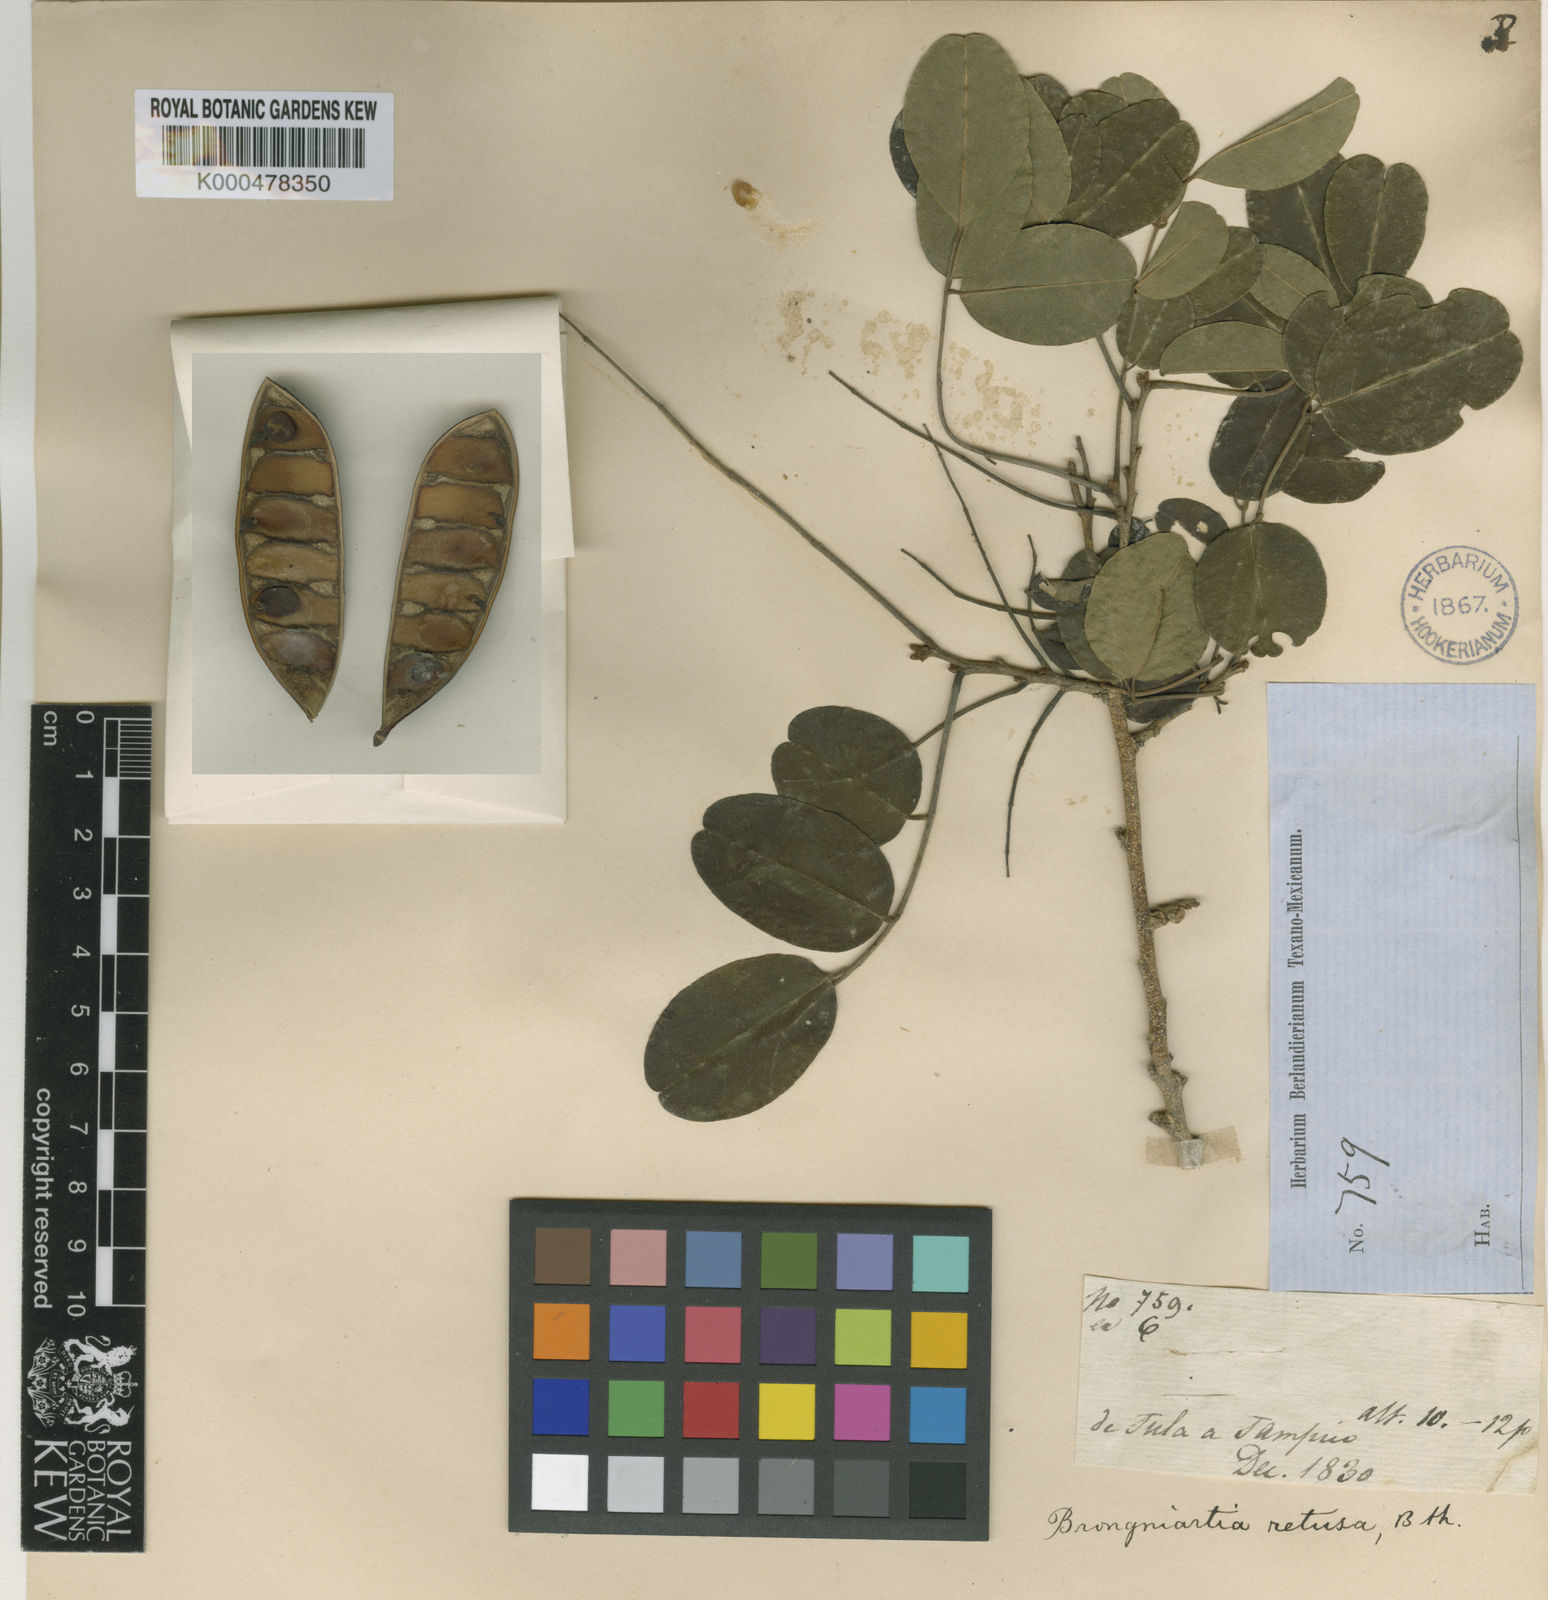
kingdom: Plantae
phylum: Tracheophyta
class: Magnoliopsida
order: Fabales
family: Fabaceae
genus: Harpalyce
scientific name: Harpalyce arborescens
